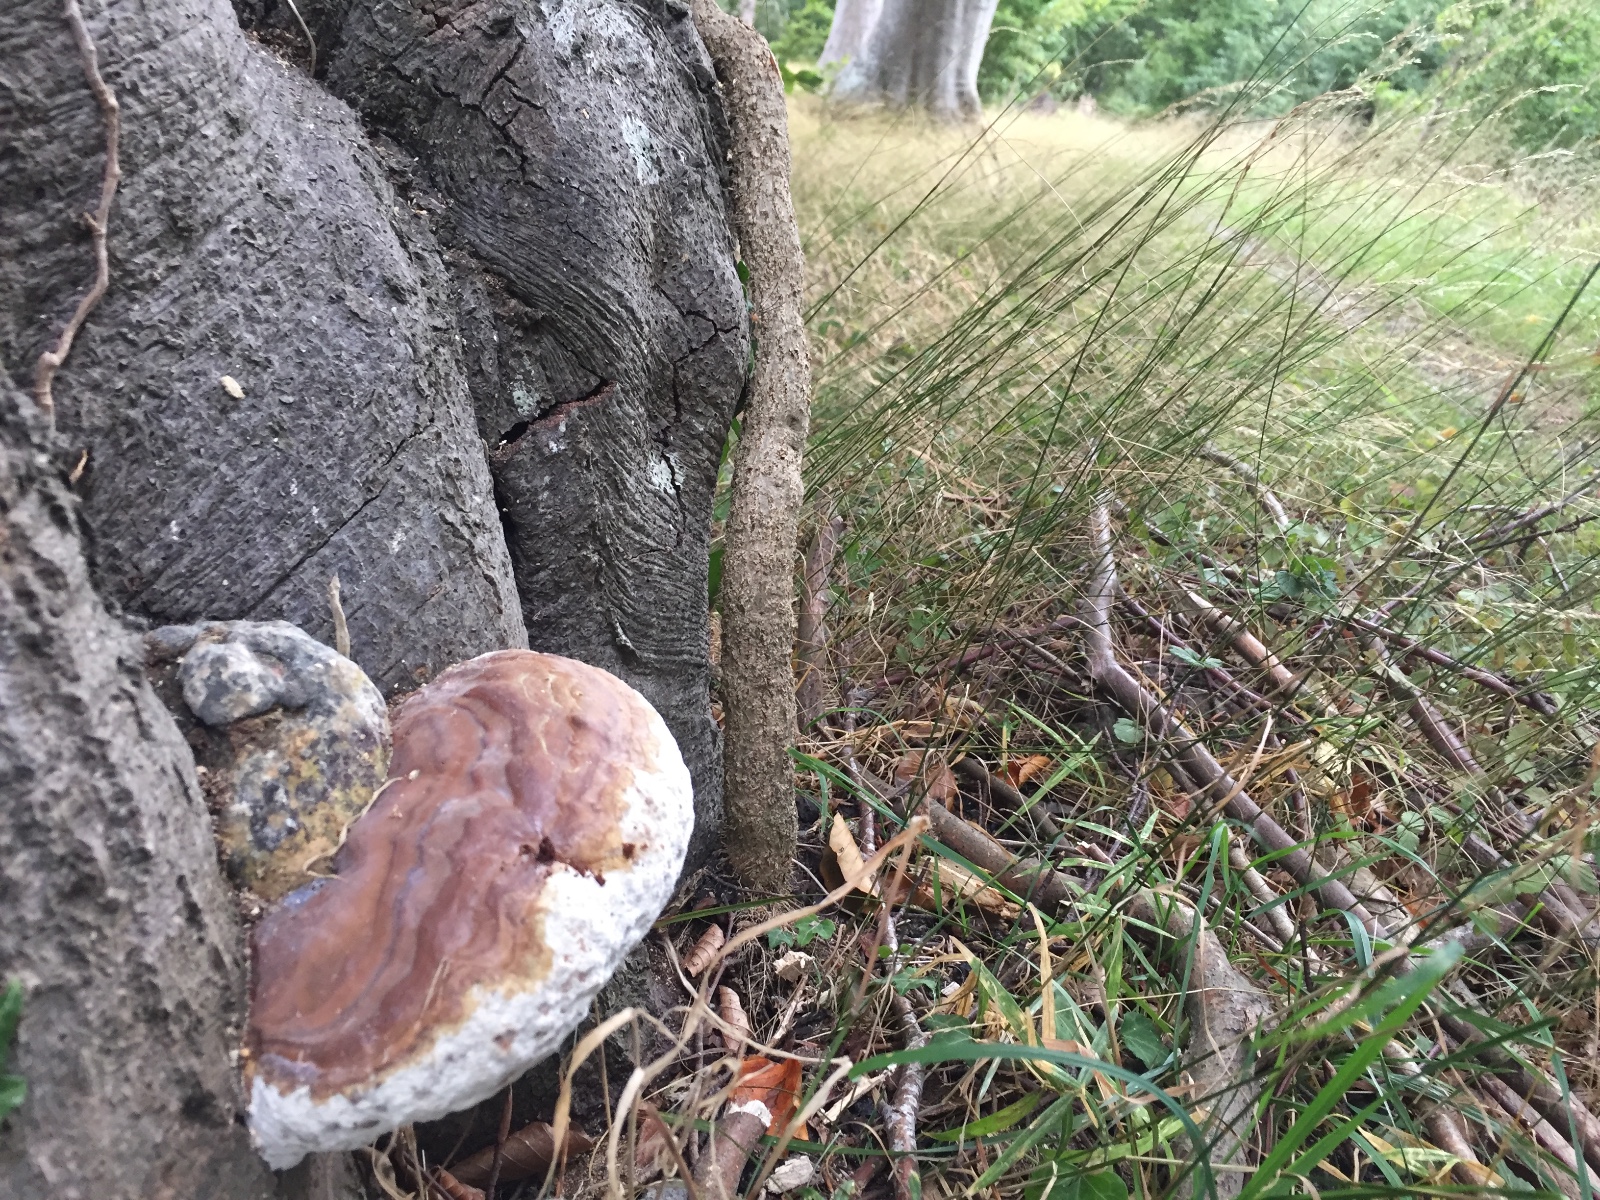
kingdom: Fungi
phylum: Basidiomycota
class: Agaricomycetes
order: Polyporales
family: Polyporaceae
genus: Ganoderma
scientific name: Ganoderma pfeifferi
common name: kobberrød lakporesvamp
